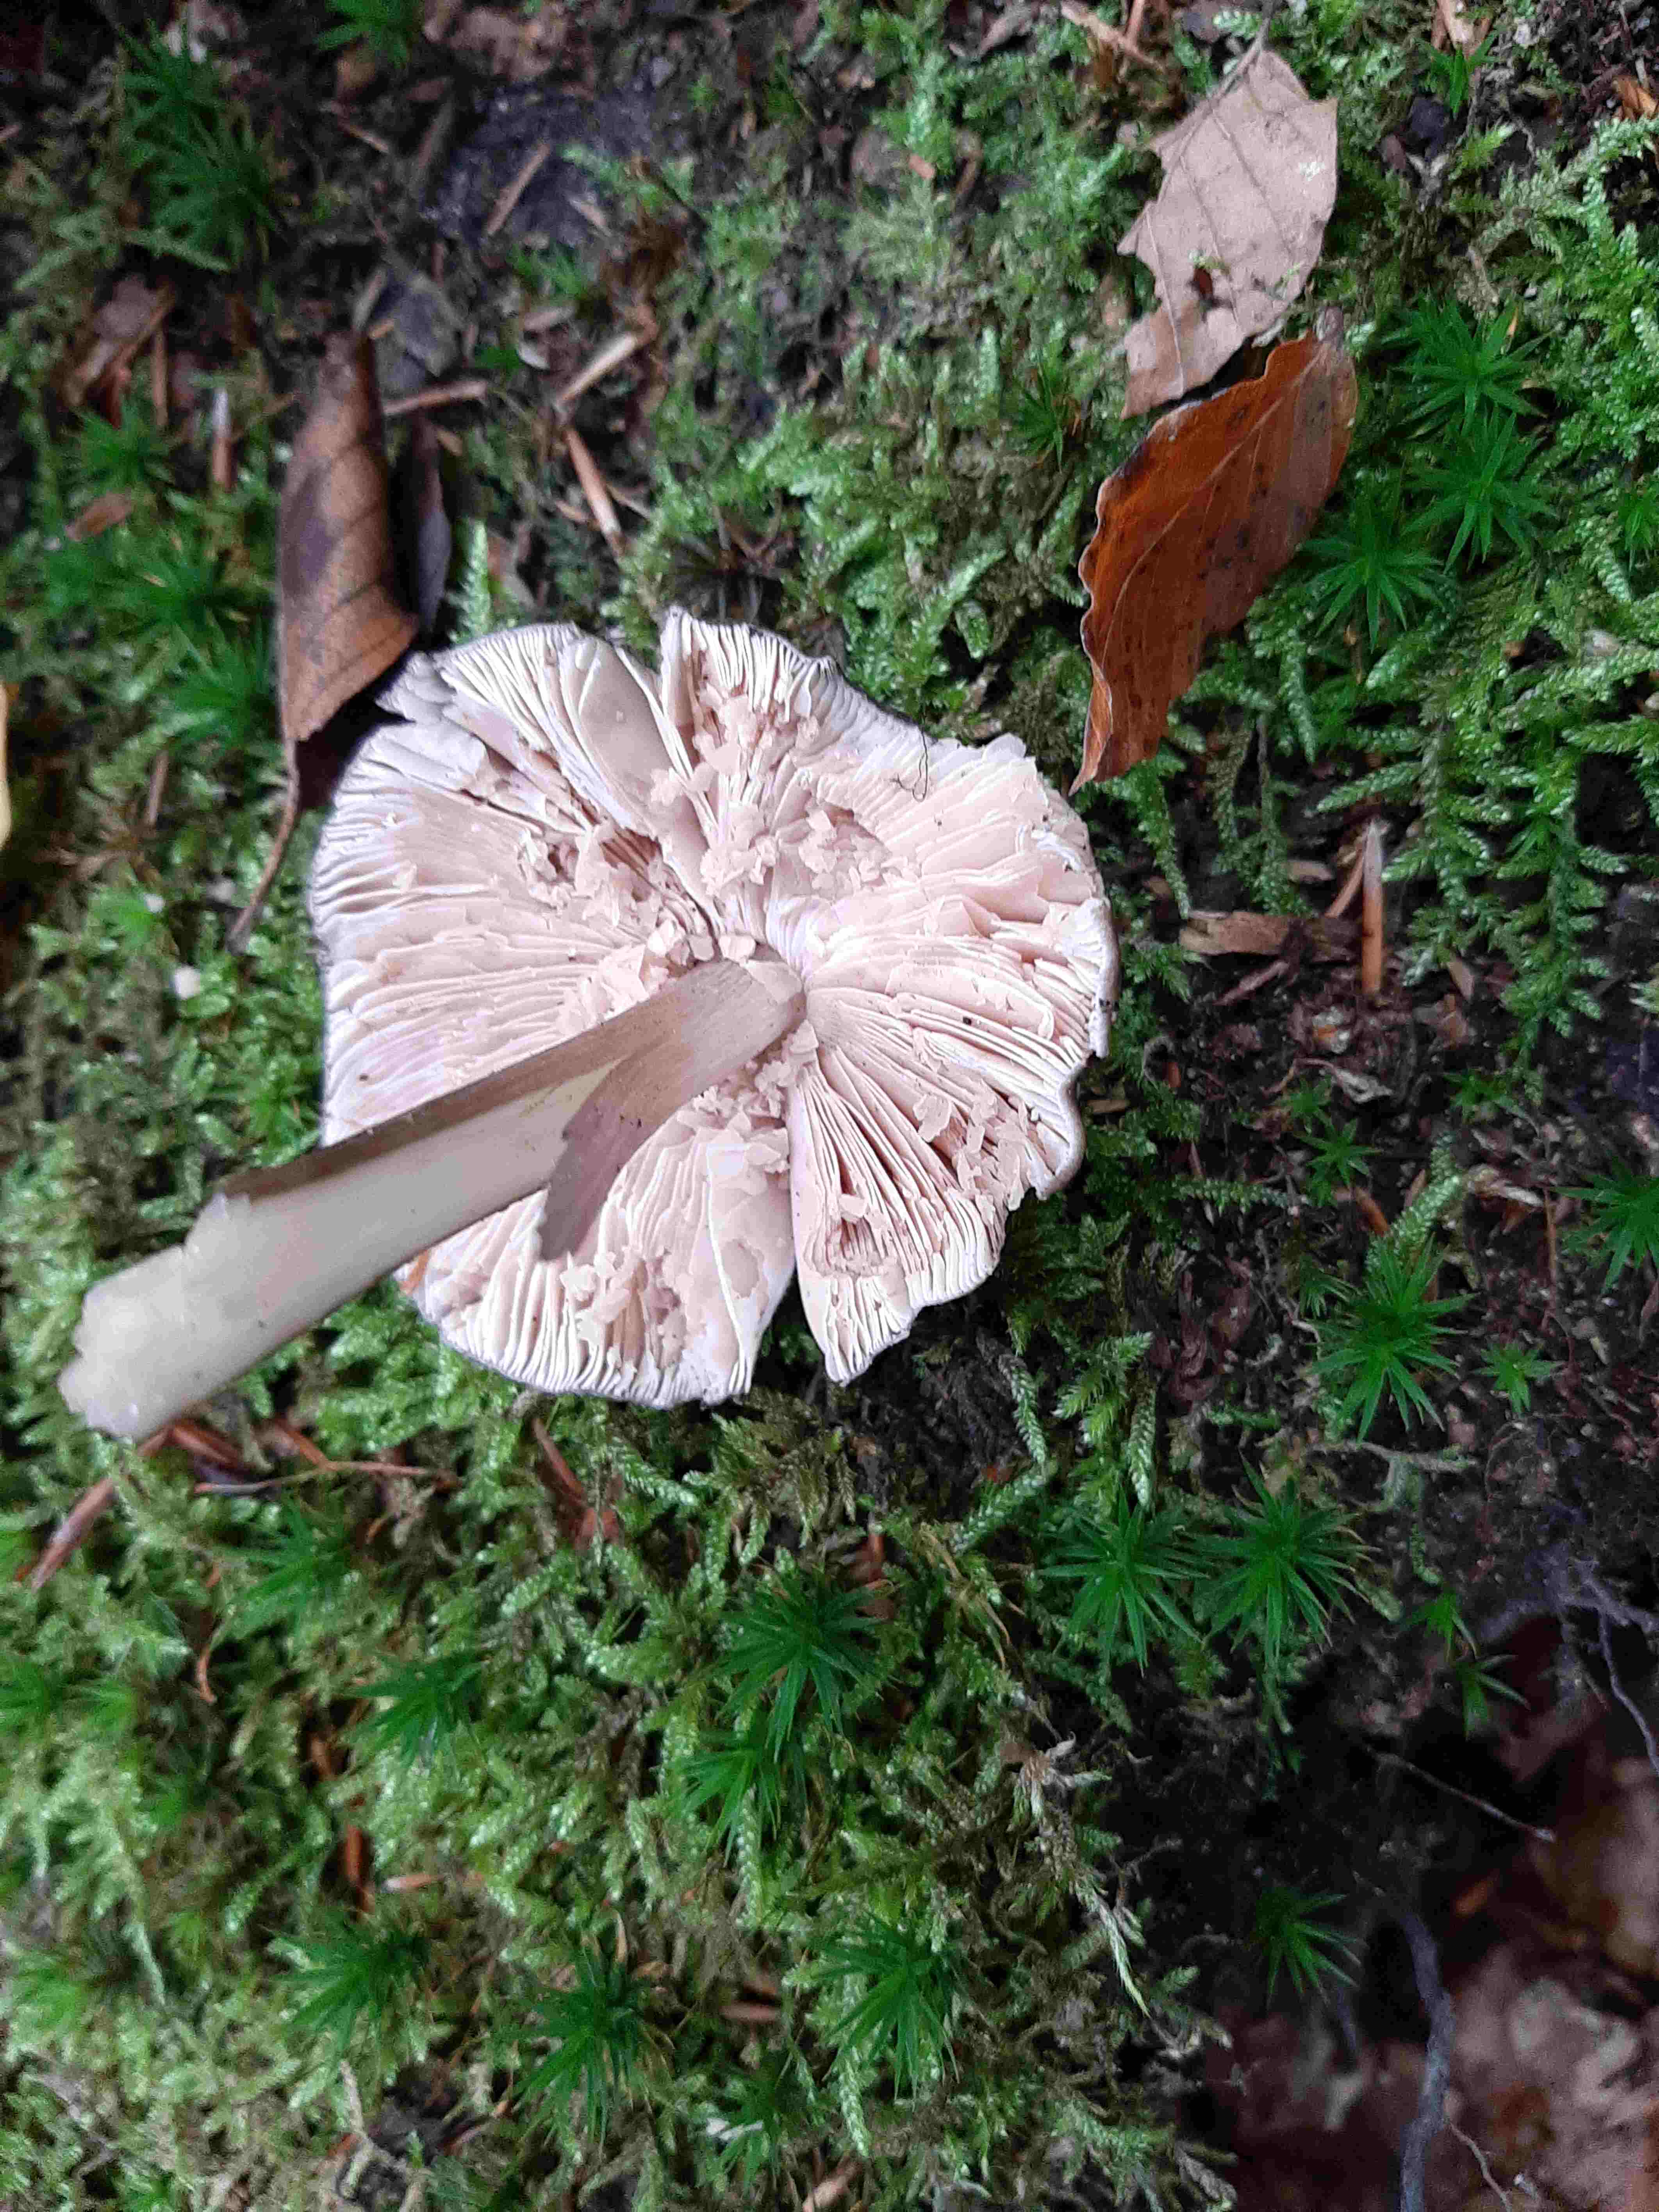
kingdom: Fungi
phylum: Basidiomycota
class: Agaricomycetes
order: Agaricales
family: Pluteaceae
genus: Pluteus
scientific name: Pluteus cervinus
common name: sodfarvet skærmhat
